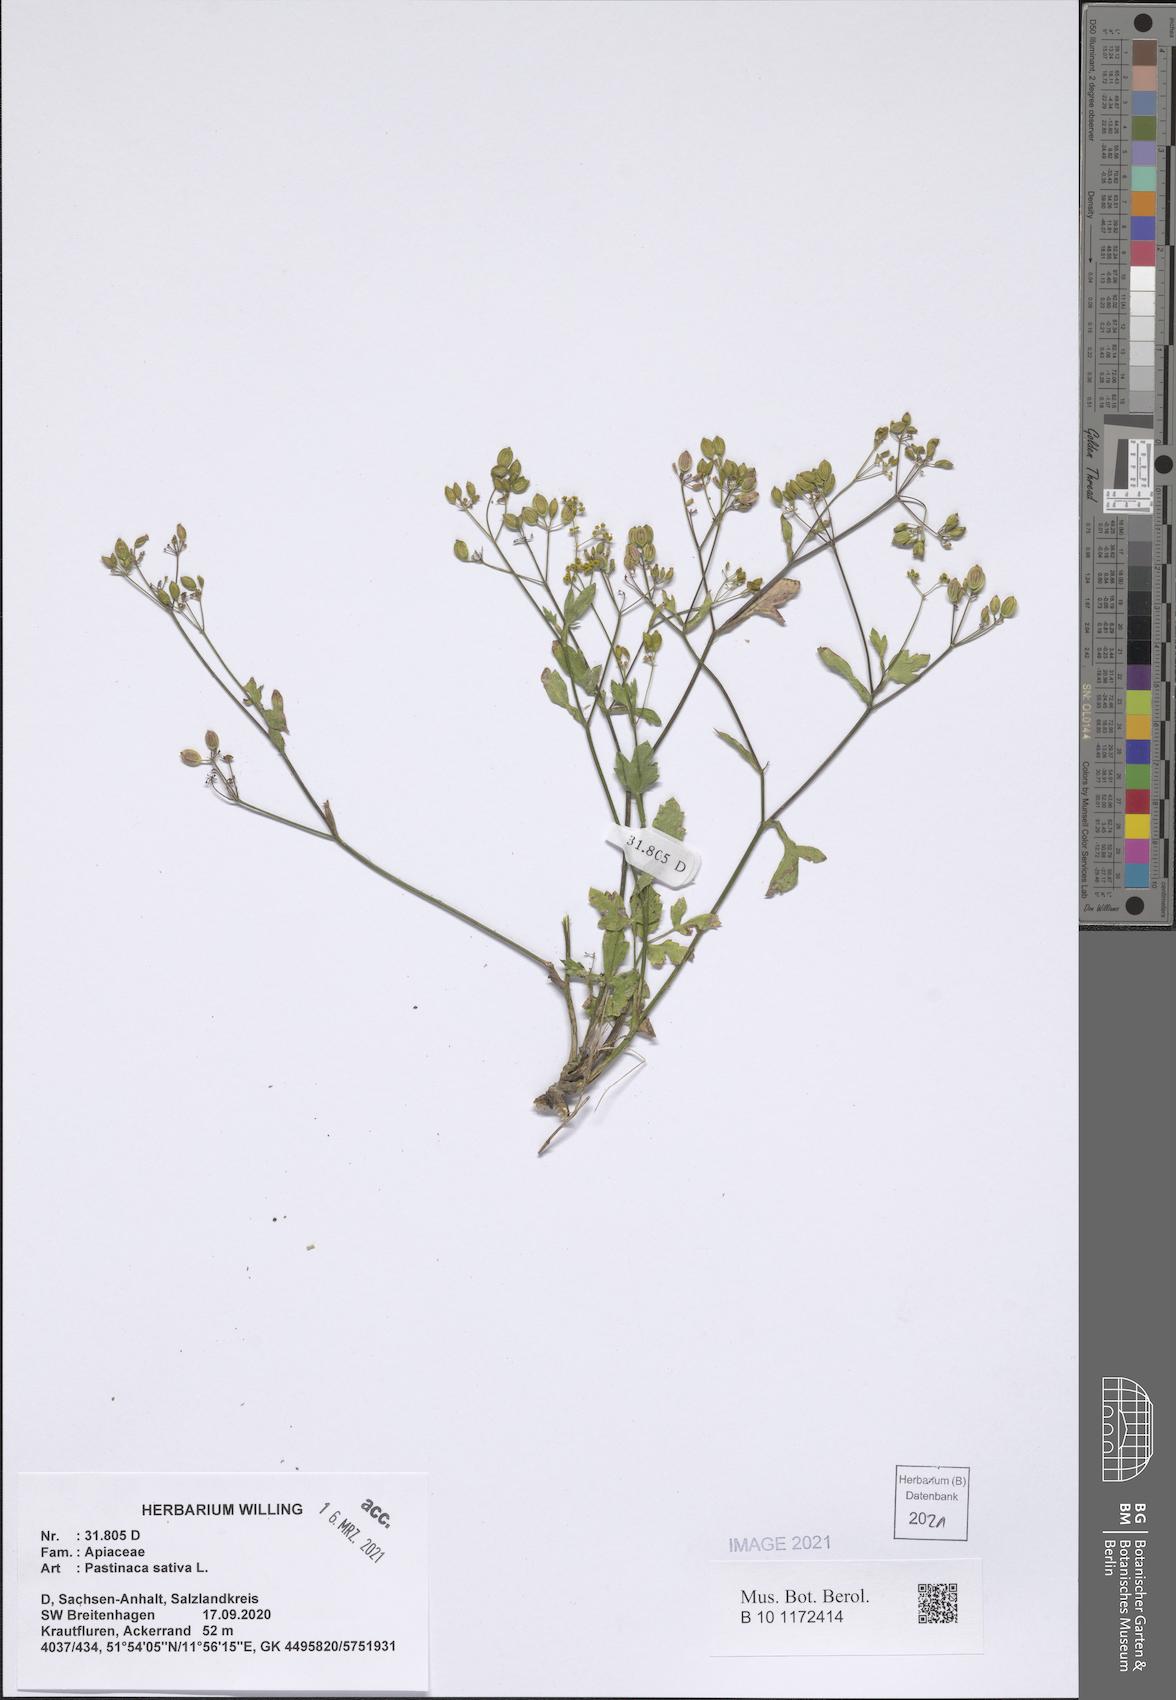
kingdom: Plantae
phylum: Tracheophyta
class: Magnoliopsida
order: Apiales
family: Apiaceae
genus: Pastinaca
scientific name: Pastinaca sativa
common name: Wild parsnip
